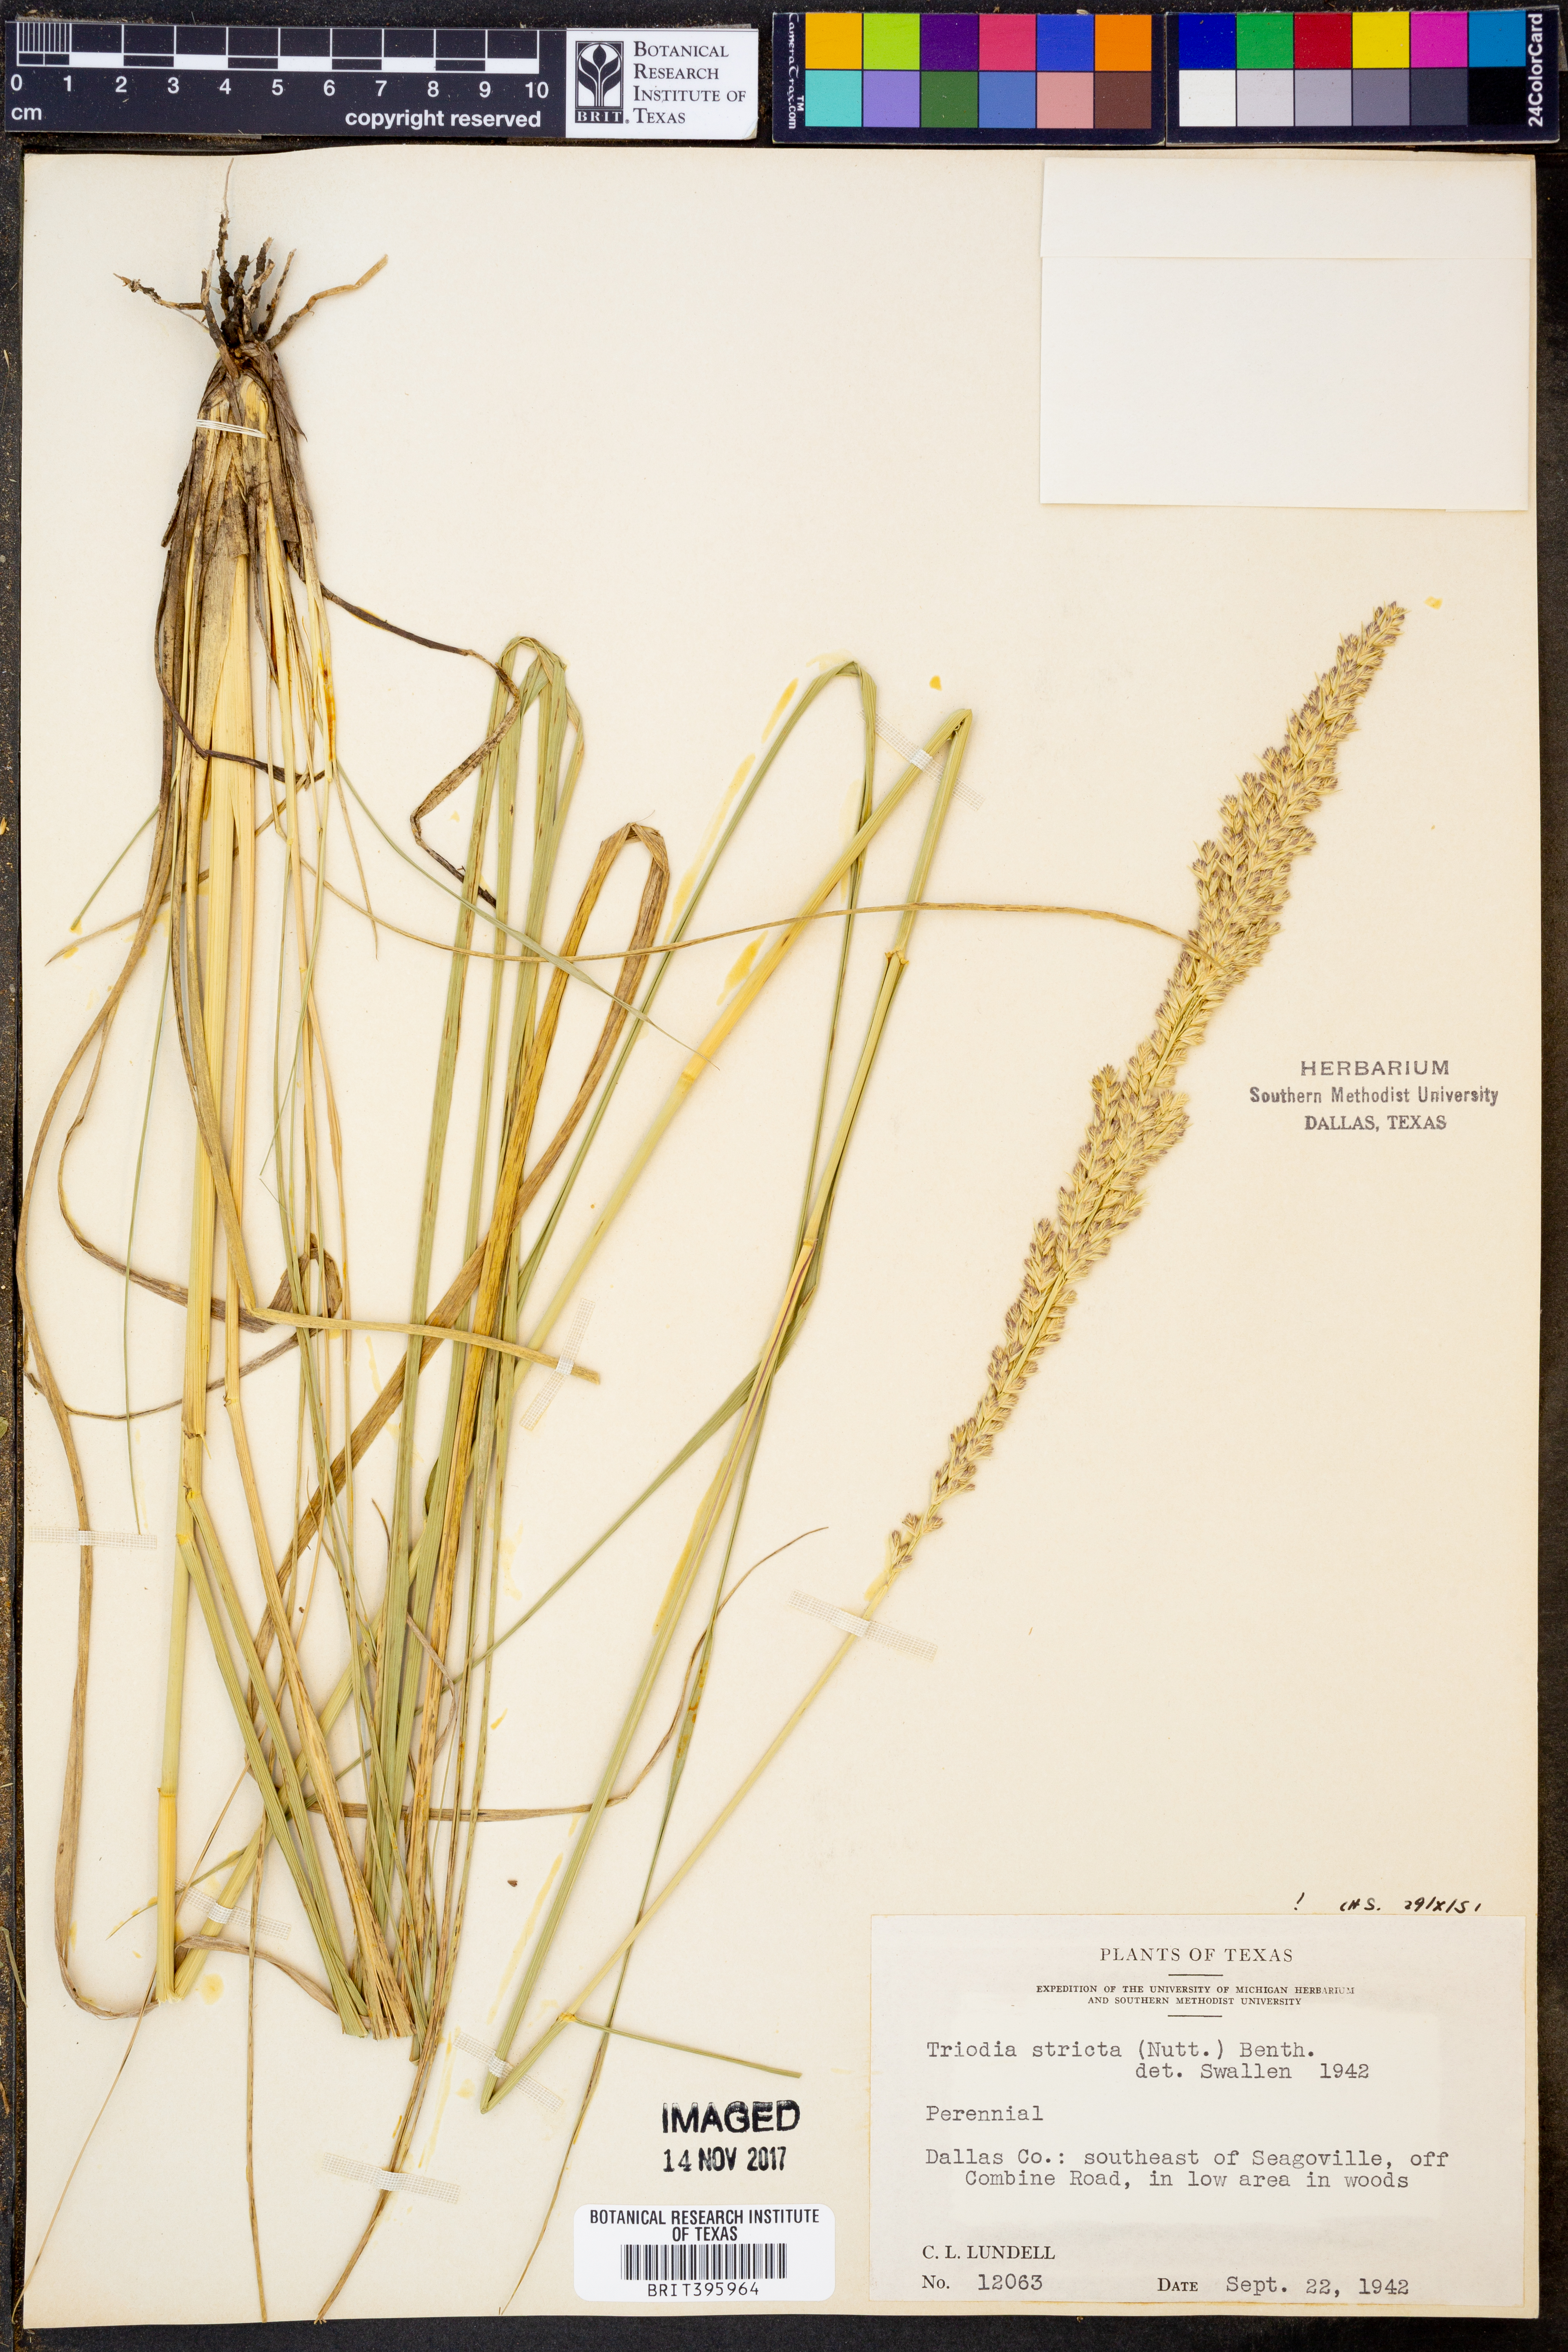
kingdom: Plantae
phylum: Tracheophyta
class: Liliopsida
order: Poales
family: Poaceae
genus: Tridens
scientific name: Tridens strictus
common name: Long-spike tridens
